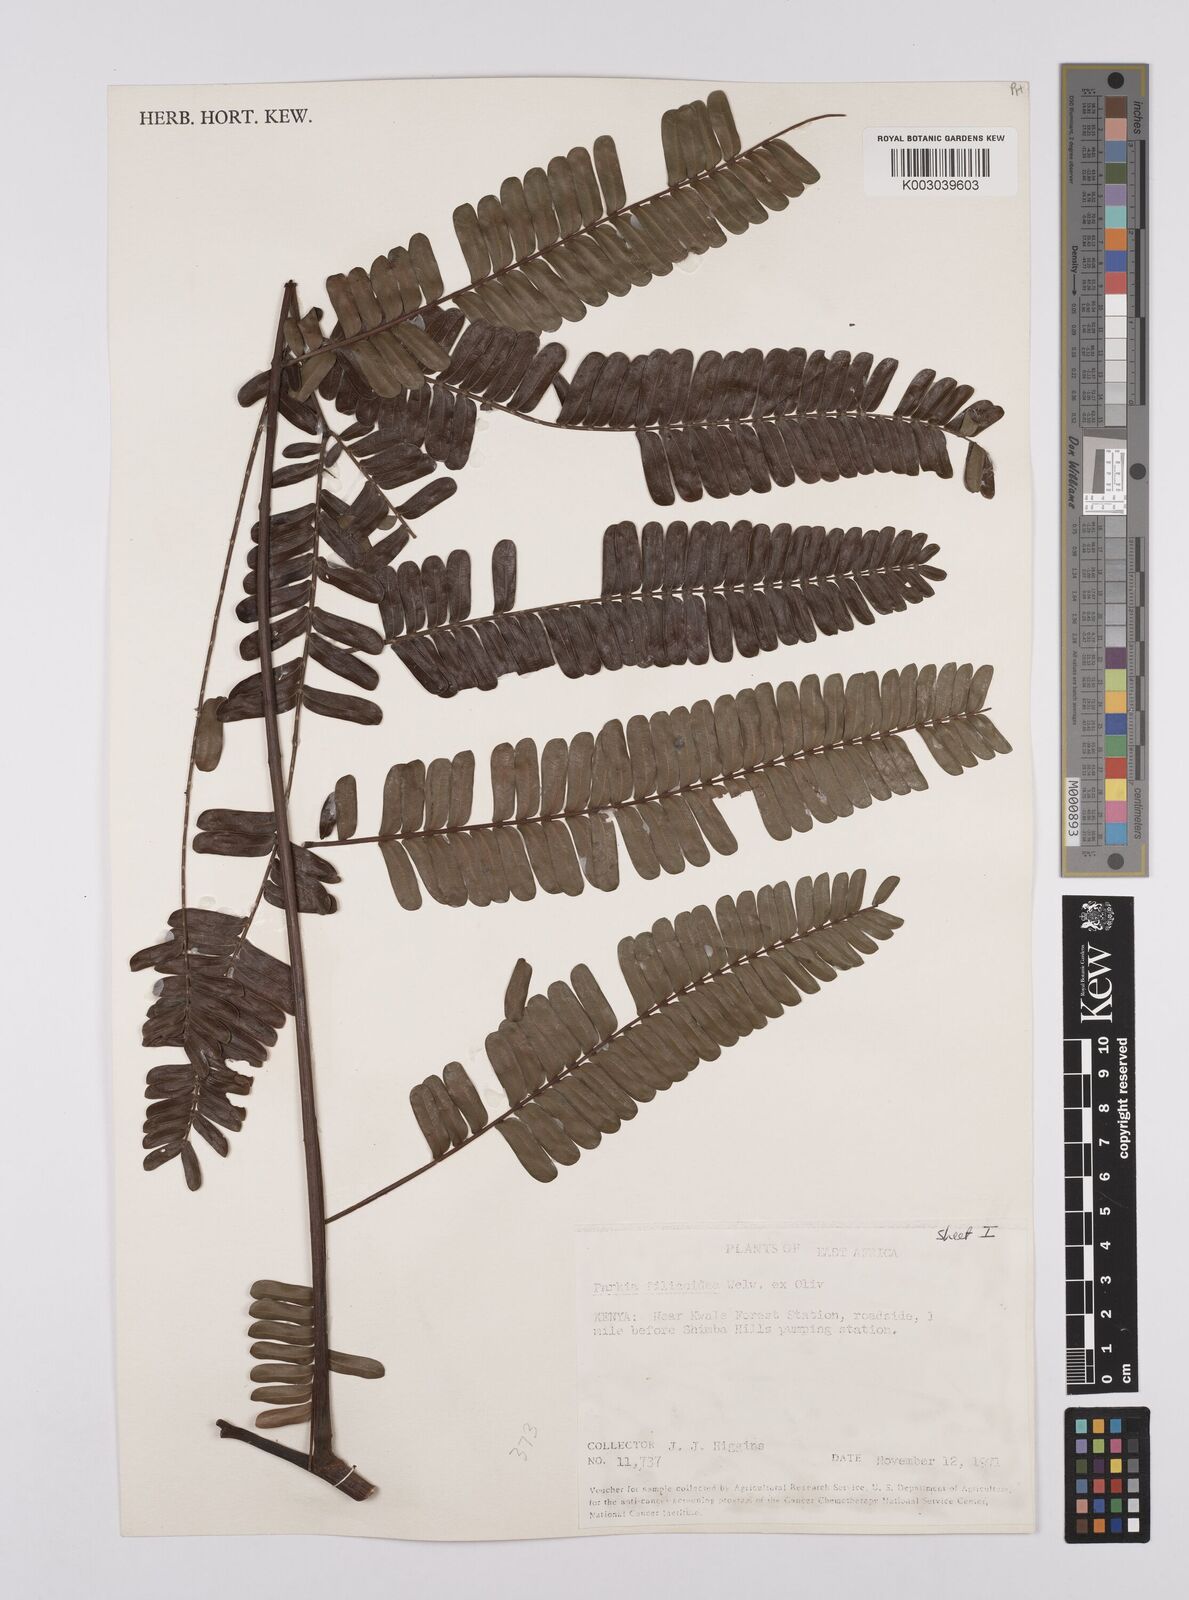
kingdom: Plantae
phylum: Tracheophyta
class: Magnoliopsida
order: Fabales
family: Fabaceae
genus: Parkia
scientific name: Parkia filicoidea
